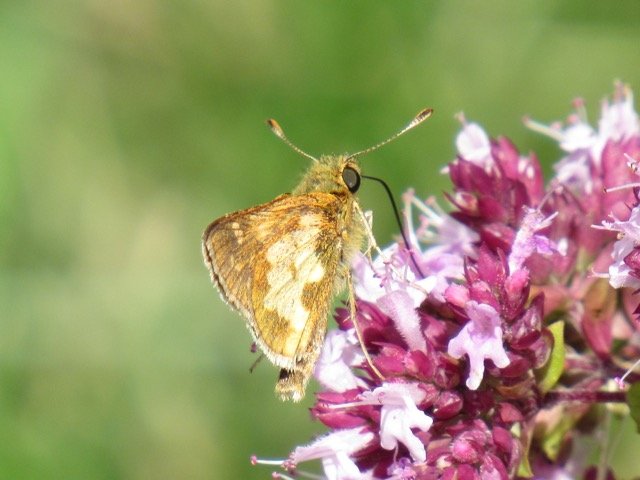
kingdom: Animalia
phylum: Arthropoda
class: Insecta
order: Lepidoptera
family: Hesperiidae
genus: Polites
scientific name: Polites coras
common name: Peck's Skipper
